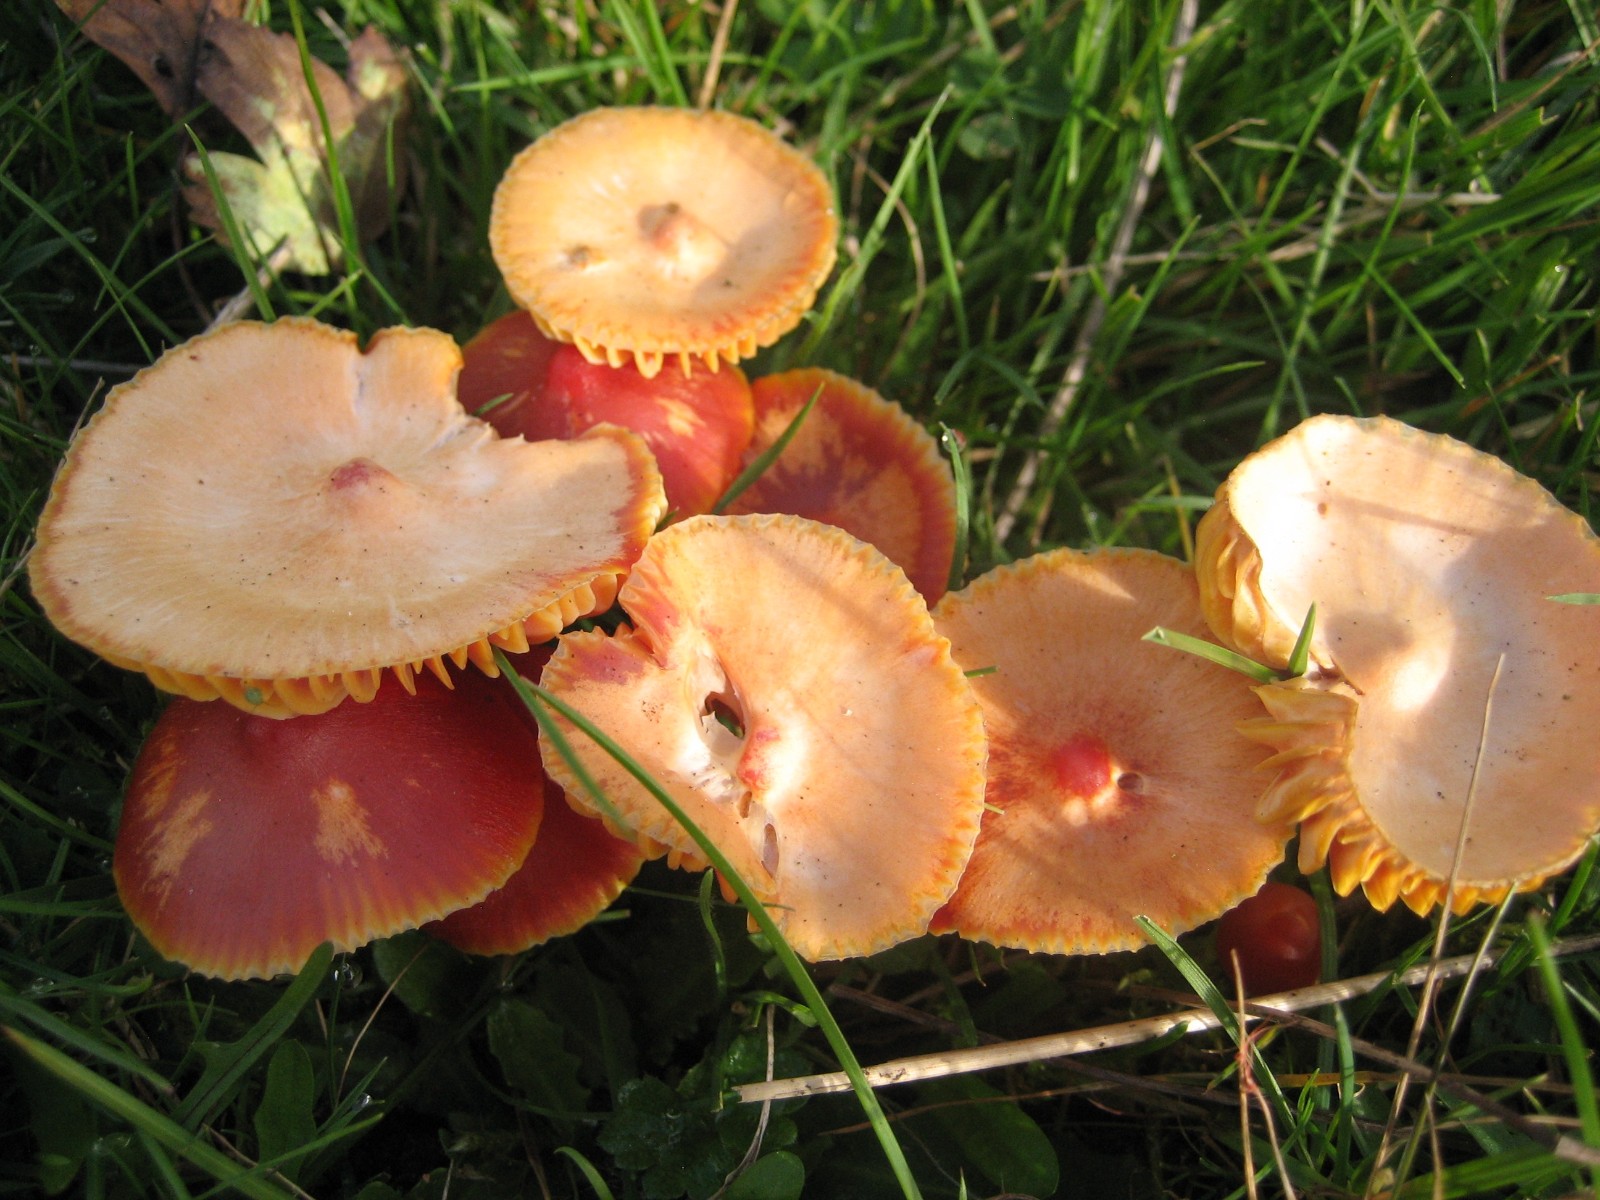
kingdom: Fungi
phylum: Basidiomycota
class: Agaricomycetes
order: Agaricales
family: Hygrophoraceae
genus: Hygrocybe
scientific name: Hygrocybe coccinea
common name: cinnober-vokshat
